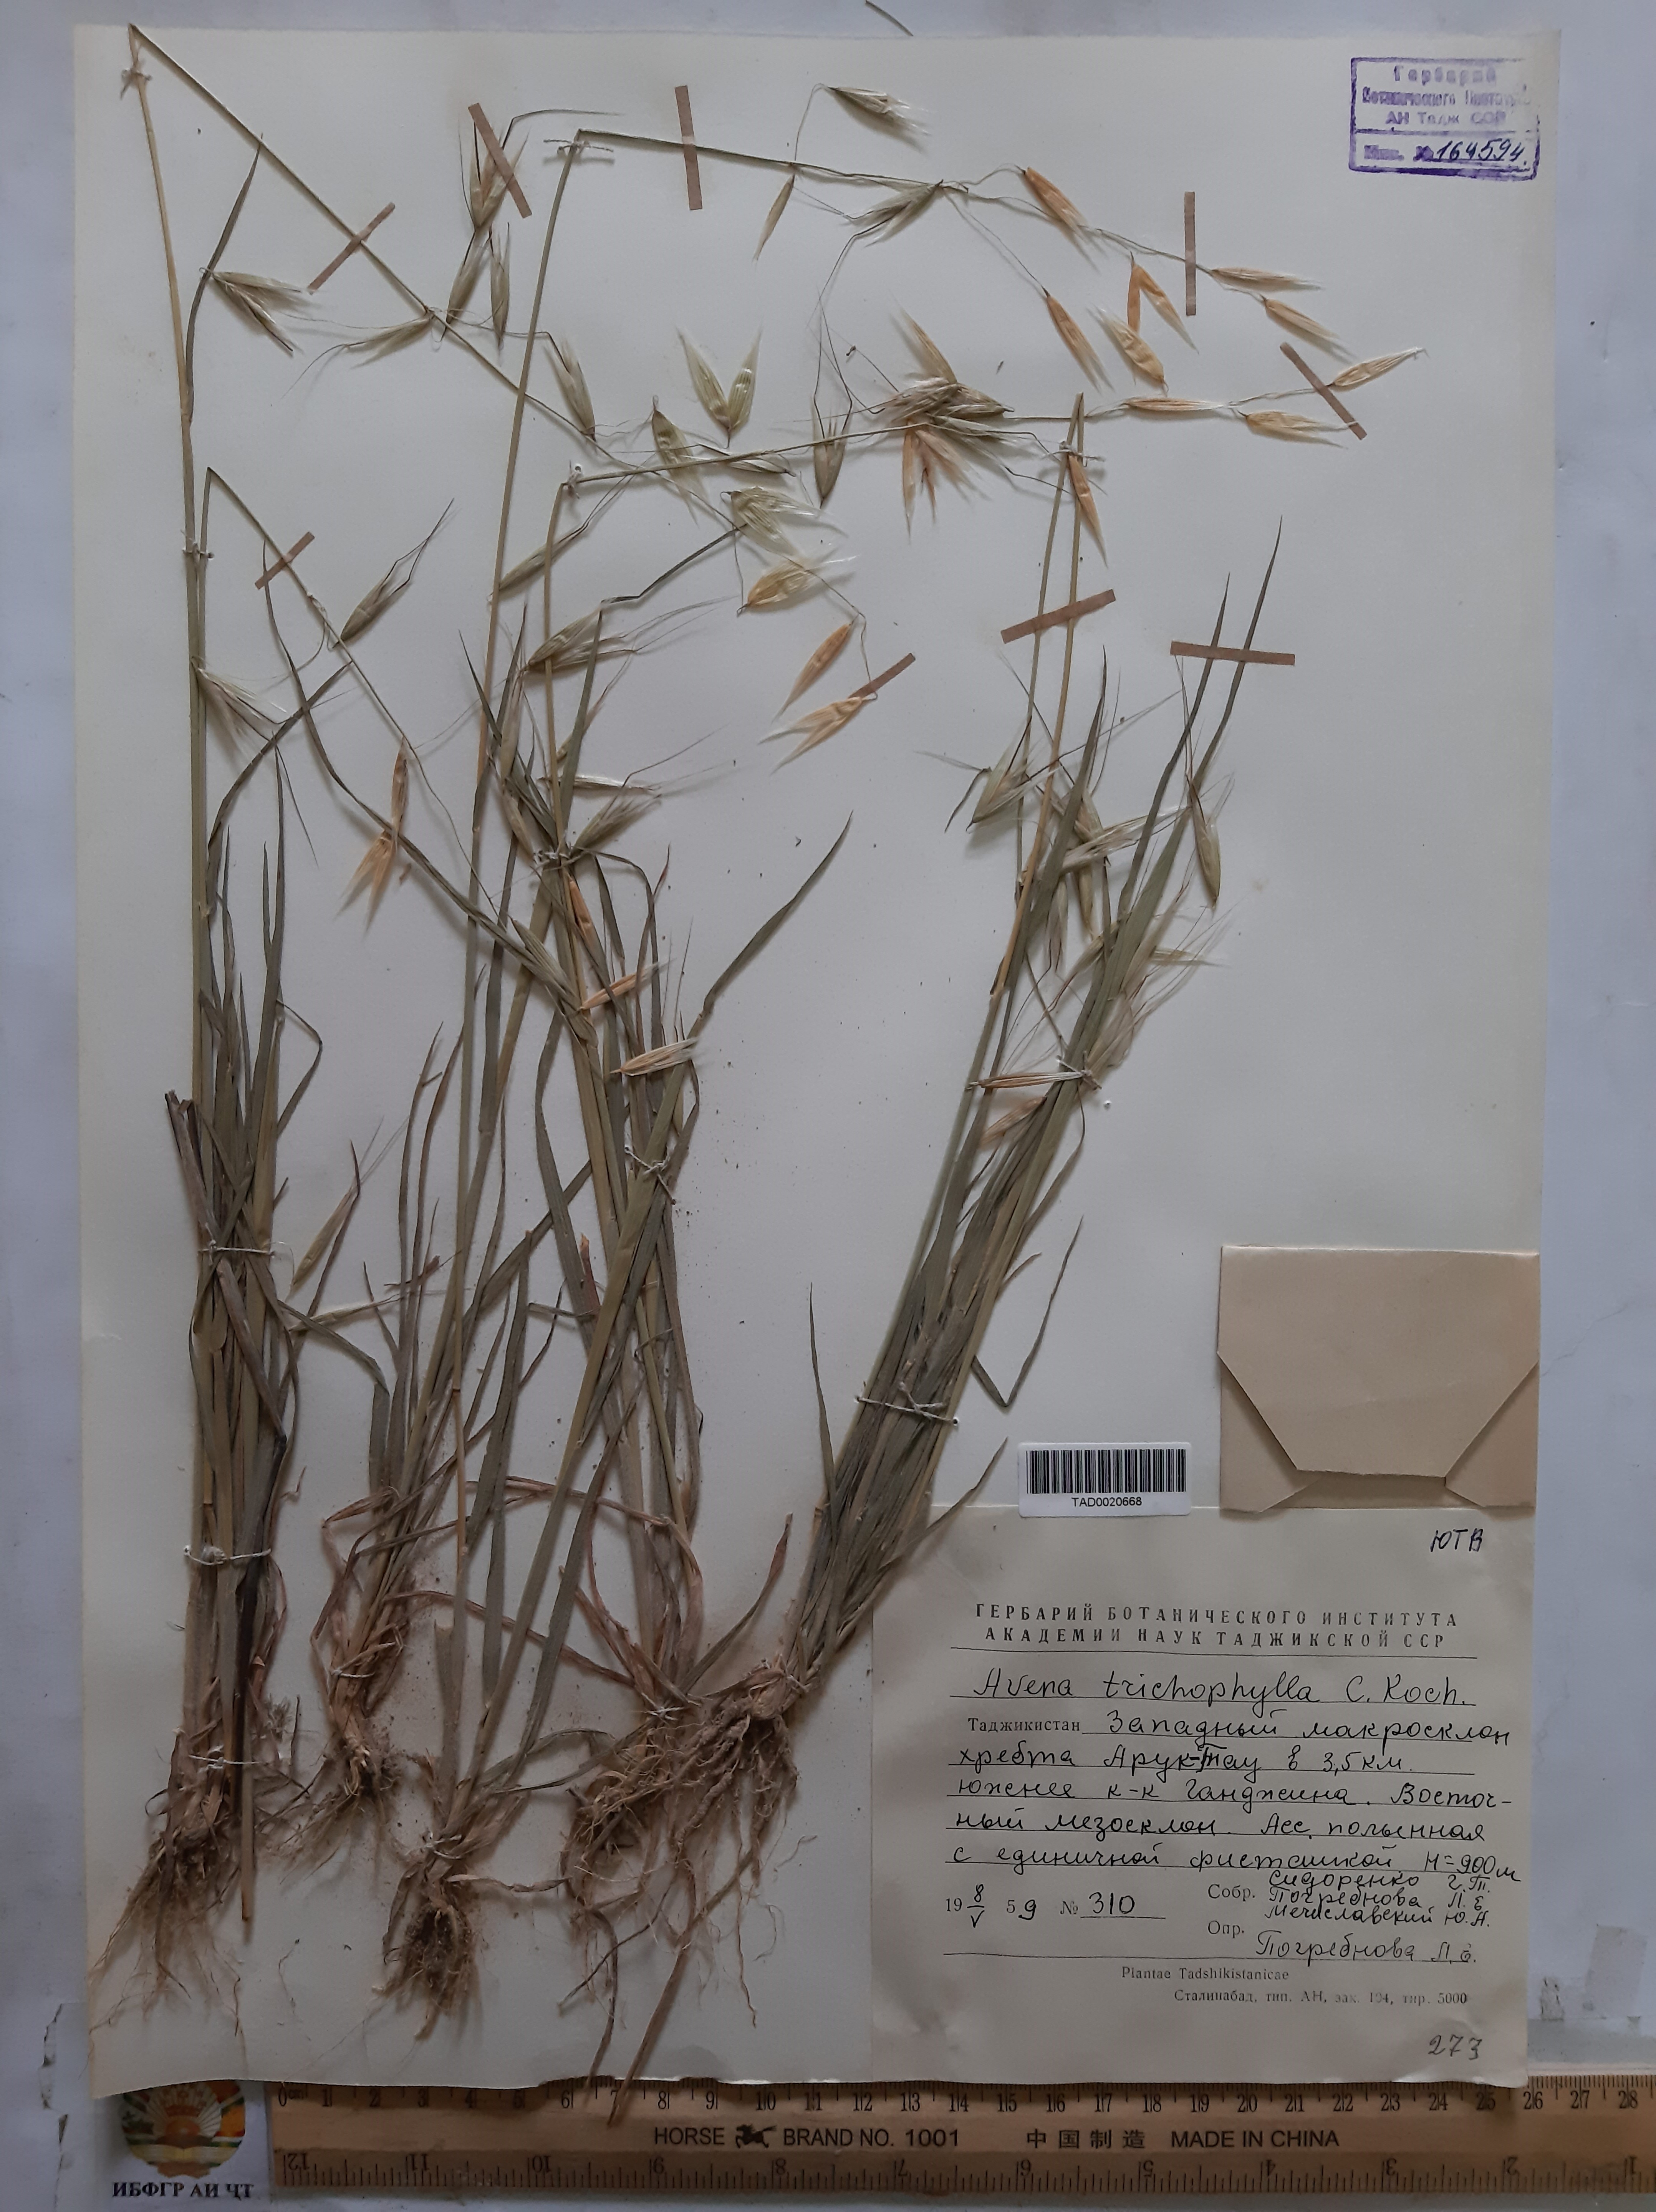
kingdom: Plantae
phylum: Tracheophyta
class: Liliopsida
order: Poales
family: Poaceae
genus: Avena
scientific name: Avena sterilis
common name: Animated oat
